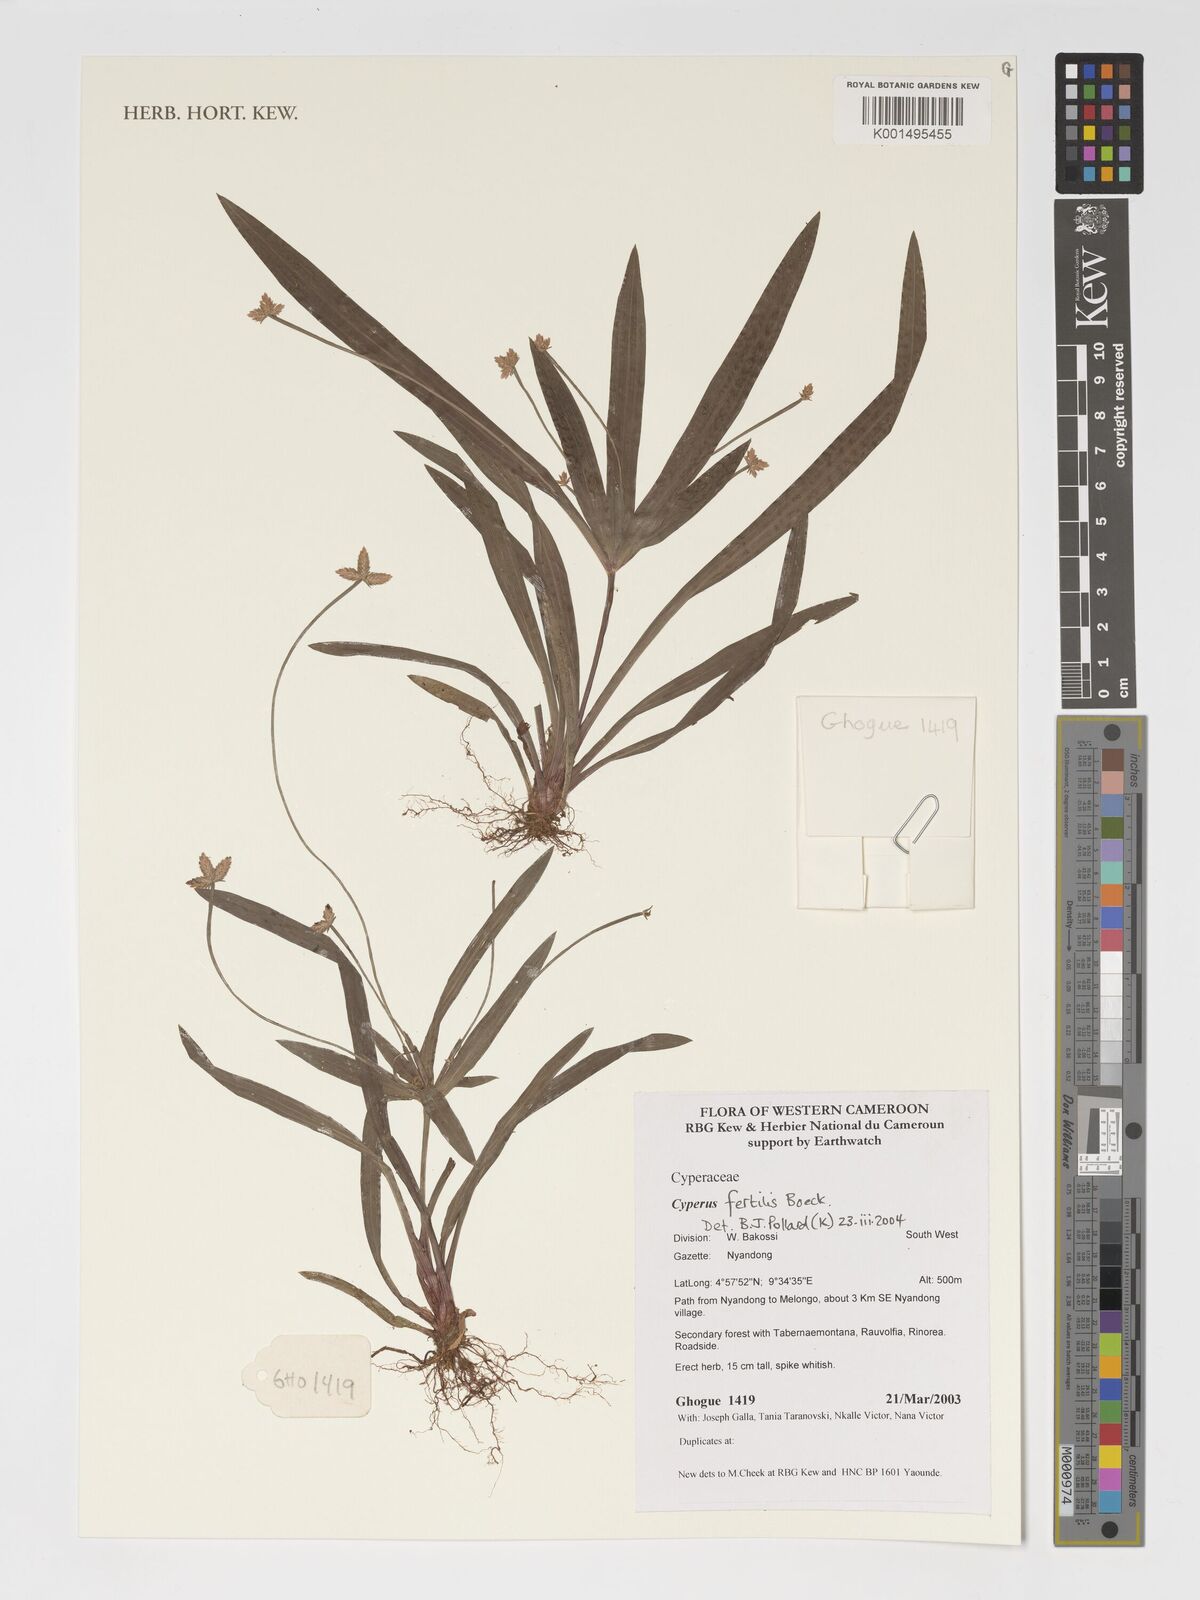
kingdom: Plantae
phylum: Tracheophyta
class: Liliopsida
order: Poales
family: Cyperaceae
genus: Cyperus
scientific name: Cyperus fertilis
